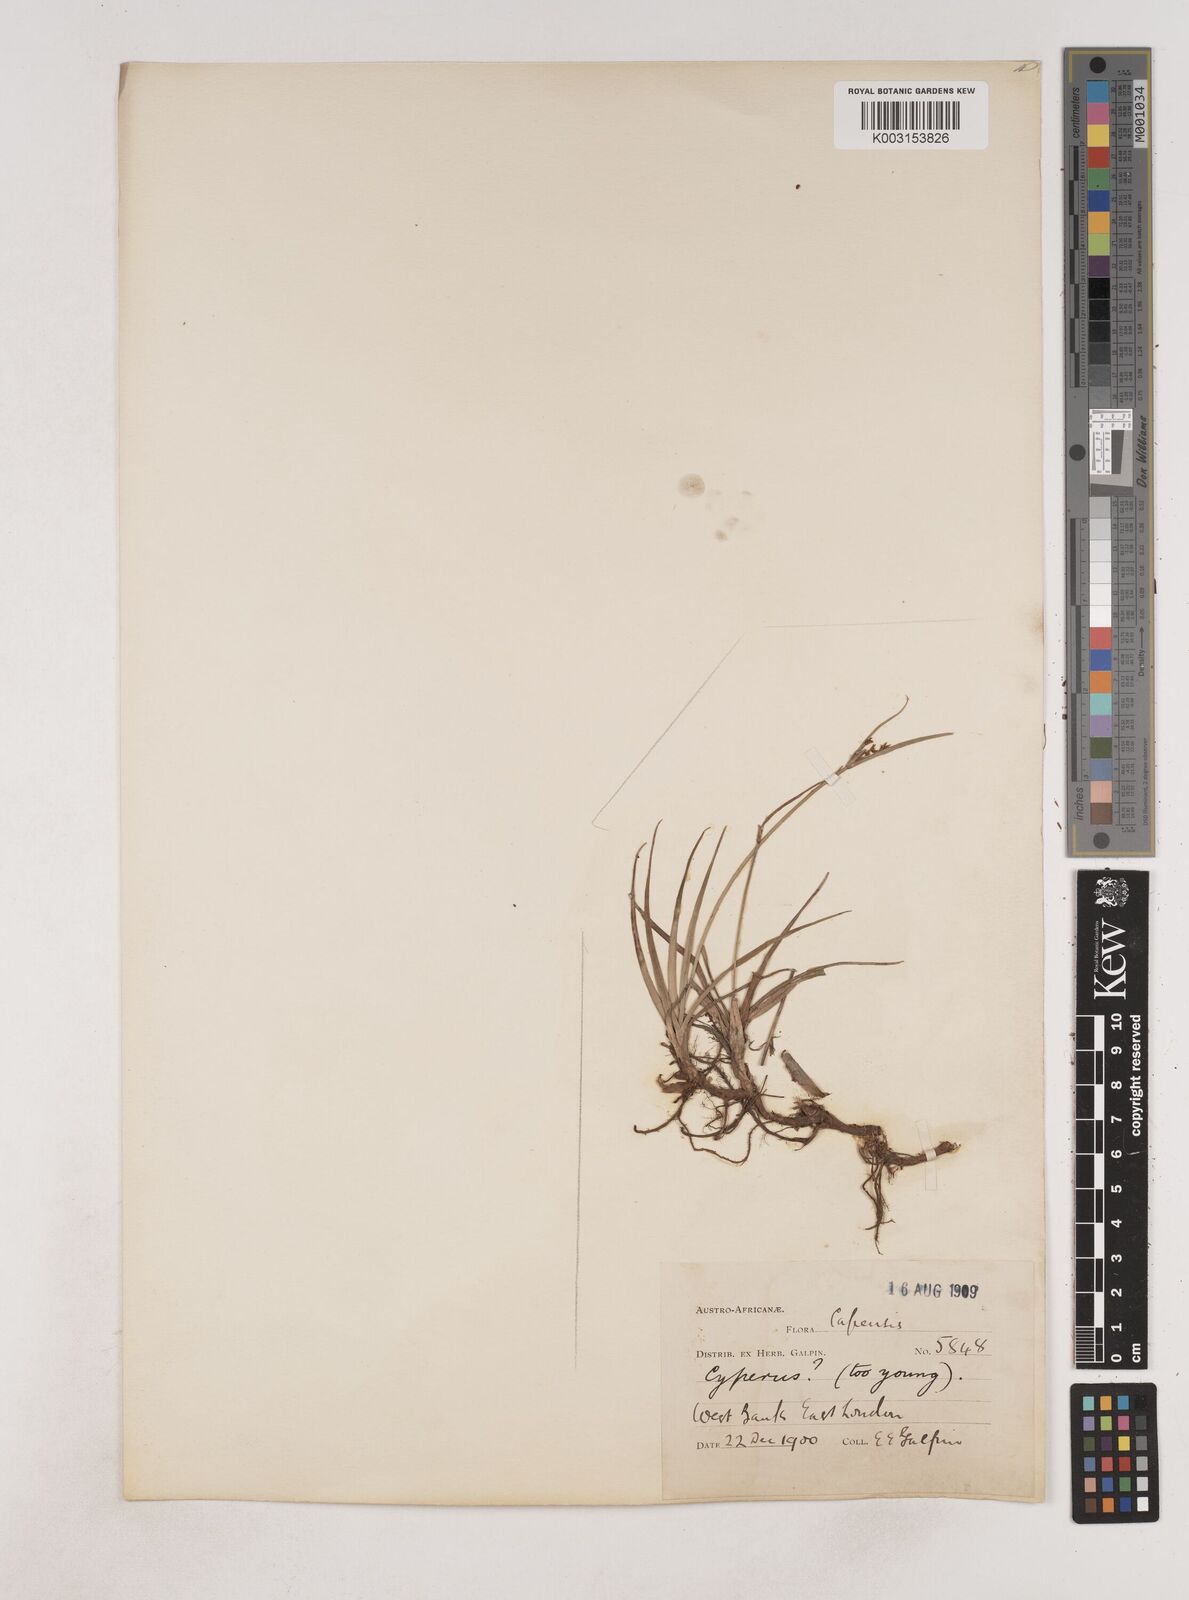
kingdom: Plantae
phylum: Tracheophyta
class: Liliopsida
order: Poales
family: Cyperaceae
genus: Cyperus
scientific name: Cyperus
